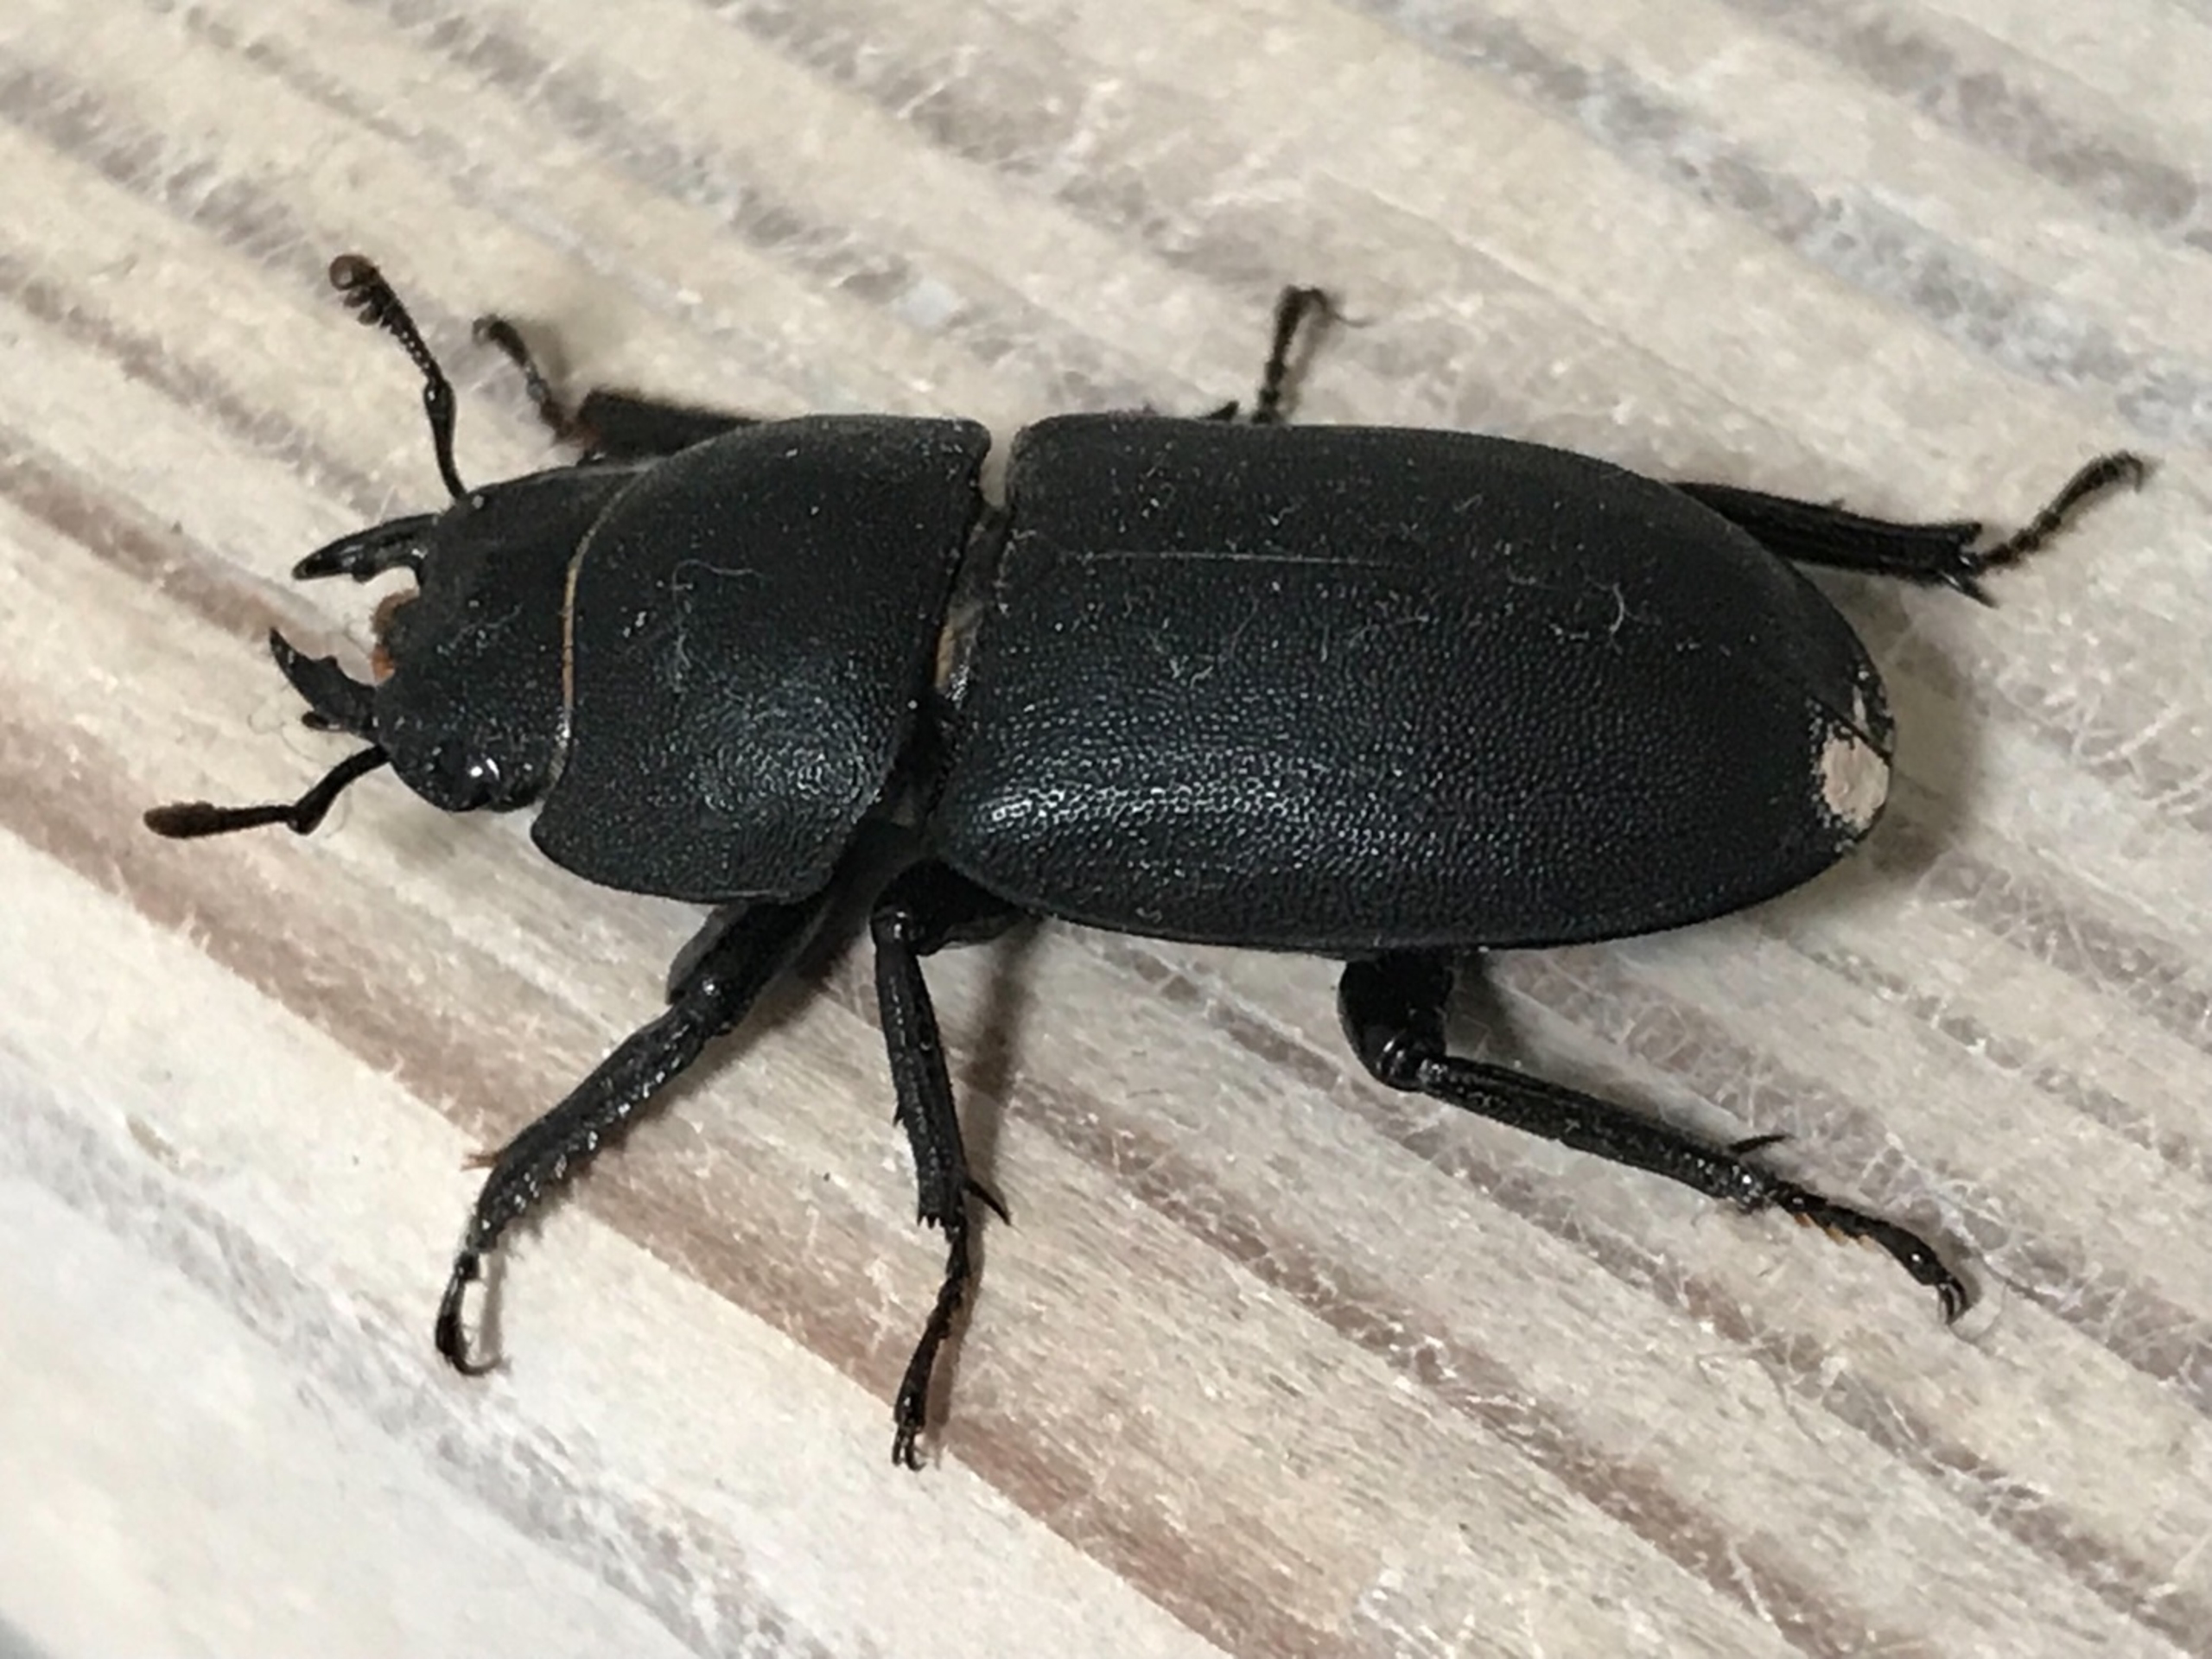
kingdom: Animalia
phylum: Arthropoda
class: Insecta
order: Coleoptera
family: Lucanidae
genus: Dorcus
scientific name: Dorcus parallelipipedus
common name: Bøghjort
